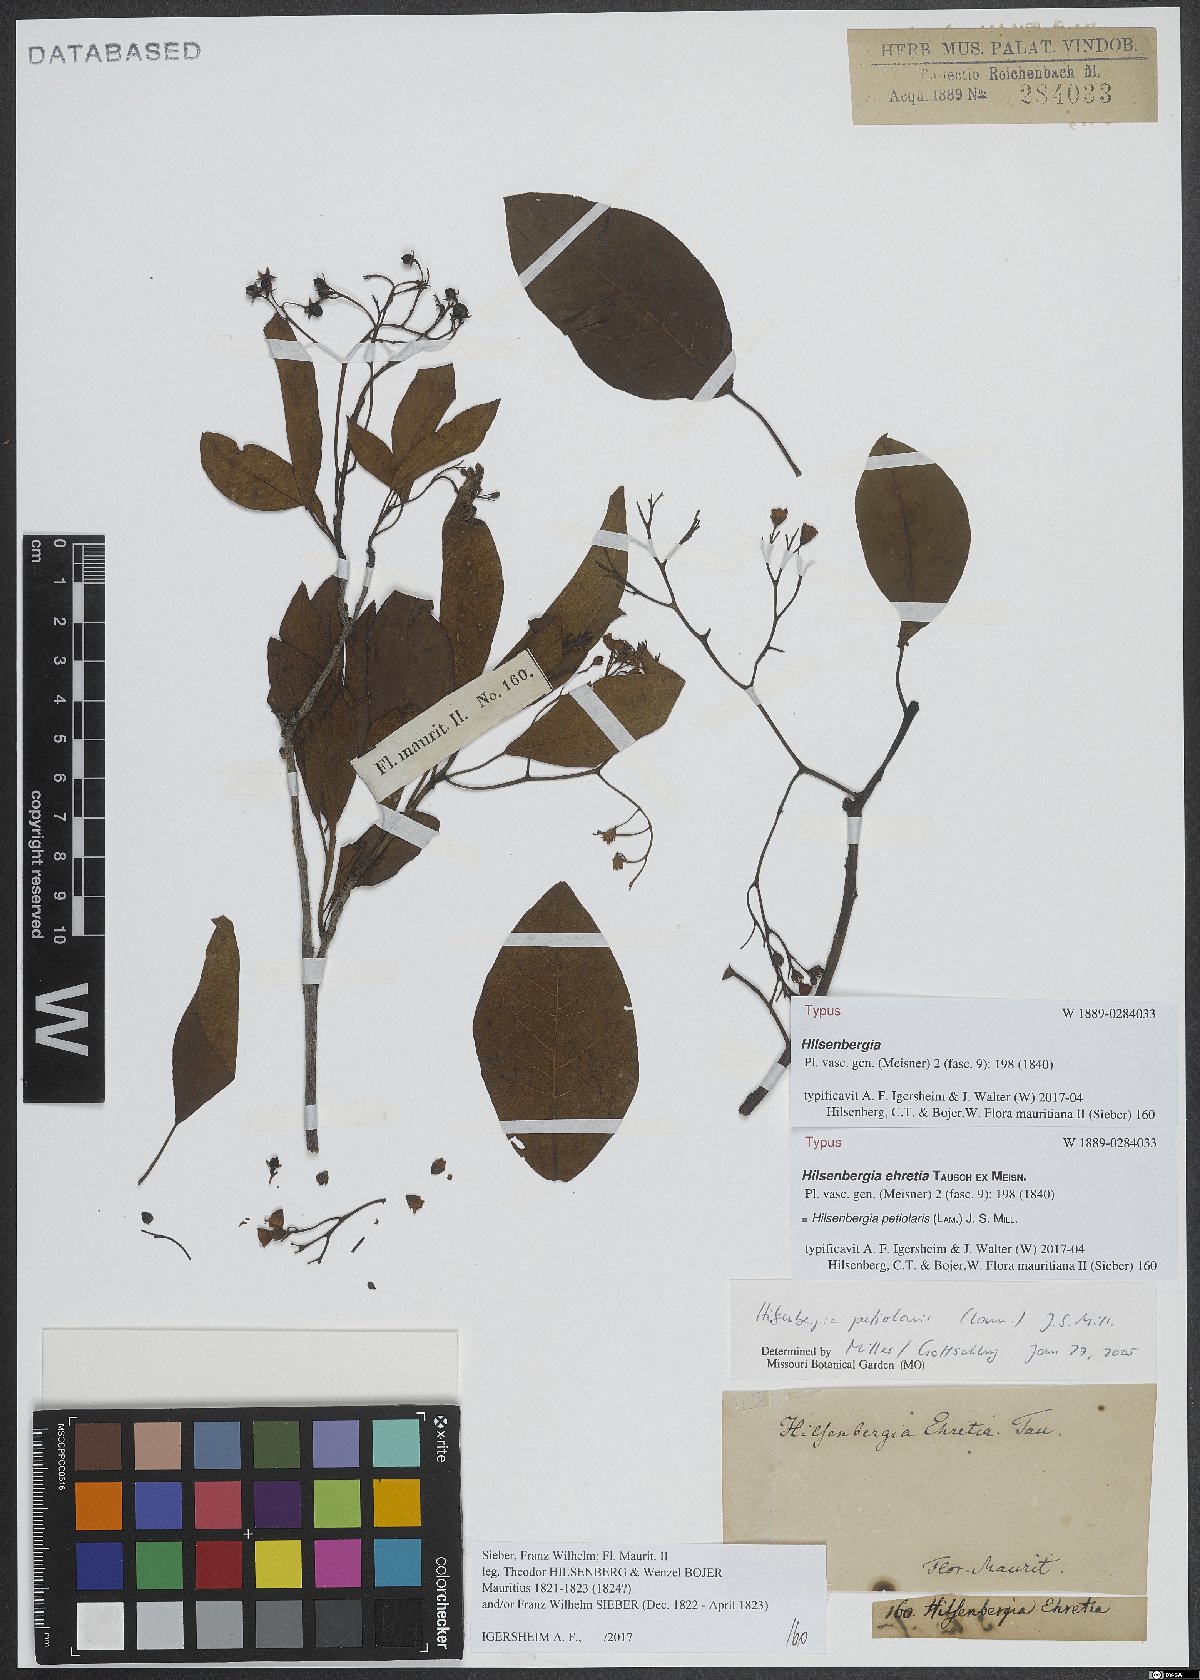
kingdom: Plantae
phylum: Tracheophyta
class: Magnoliopsida
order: Boraginales
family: Ehretiaceae
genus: Bourreria
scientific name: Bourreria petiolaris
